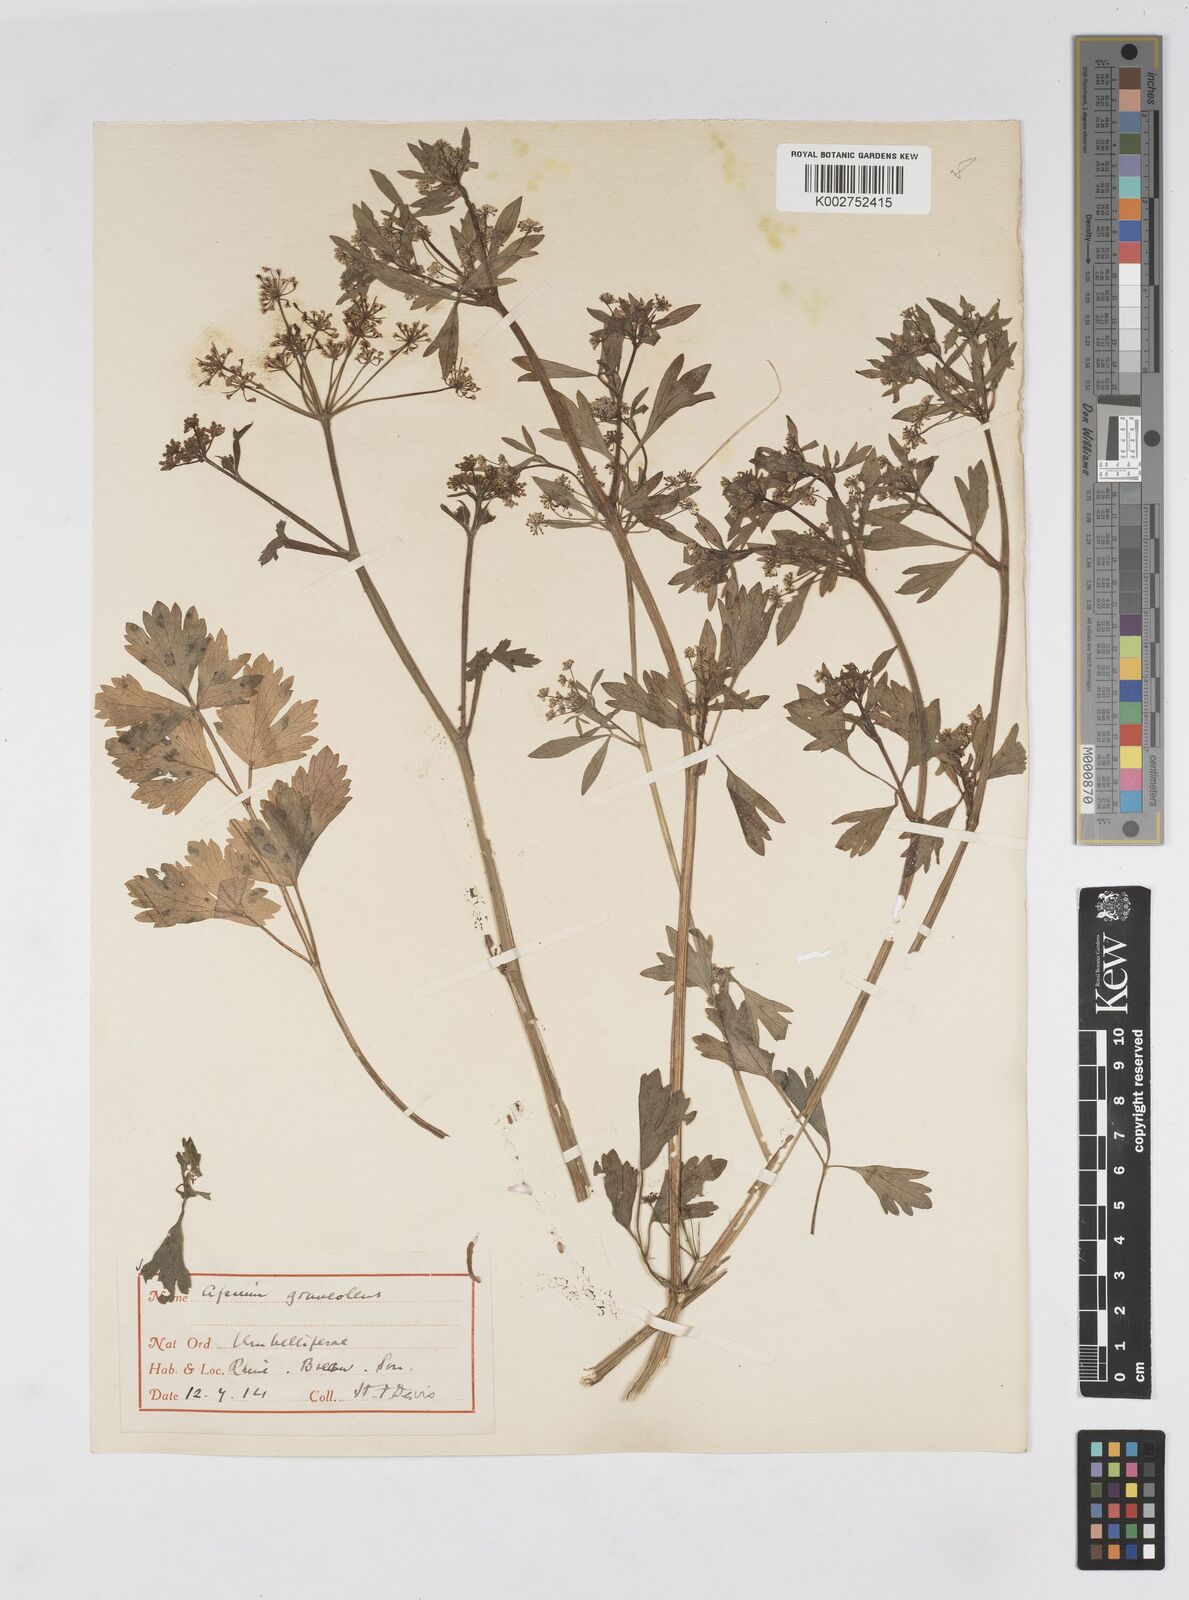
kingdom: Plantae
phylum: Tracheophyta
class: Magnoliopsida
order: Apiales
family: Apiaceae
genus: Apium
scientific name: Apium graveolens
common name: Wild celery
